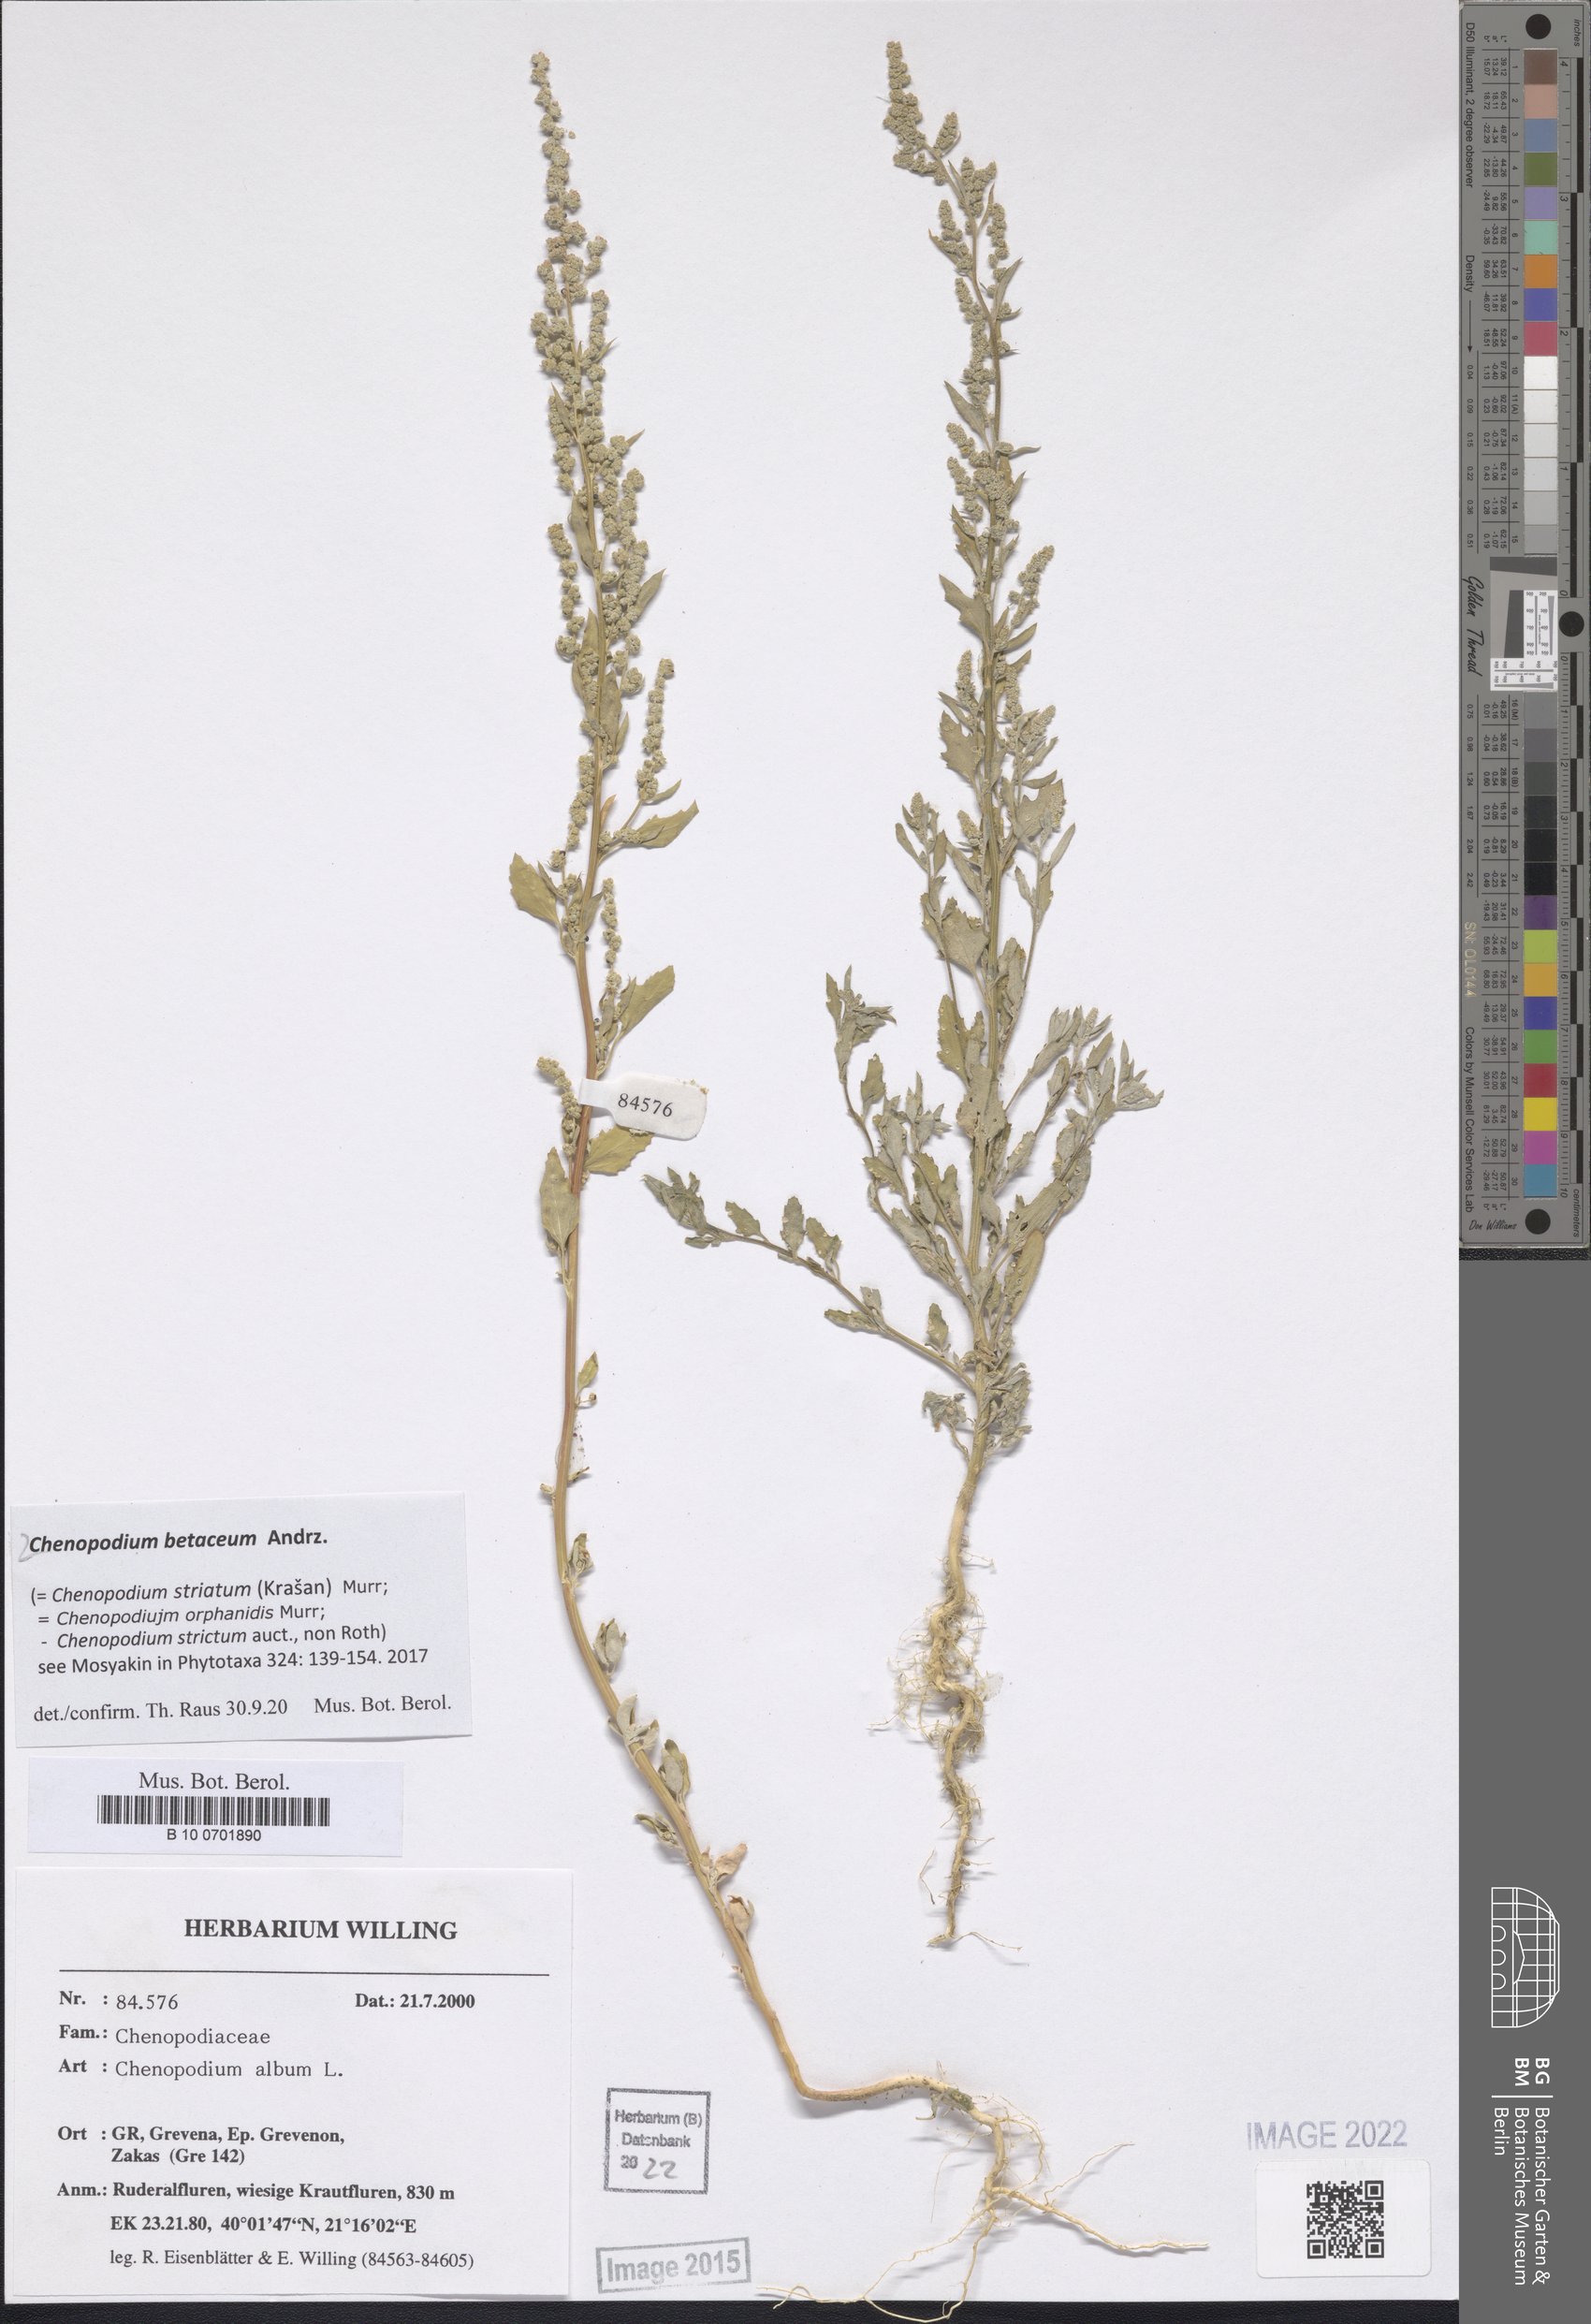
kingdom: Plantae
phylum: Tracheophyta
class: Magnoliopsida
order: Caryophyllales
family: Amaranthaceae
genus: Chenopodium
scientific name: Chenopodium betaceum
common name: Striped goosefoot
